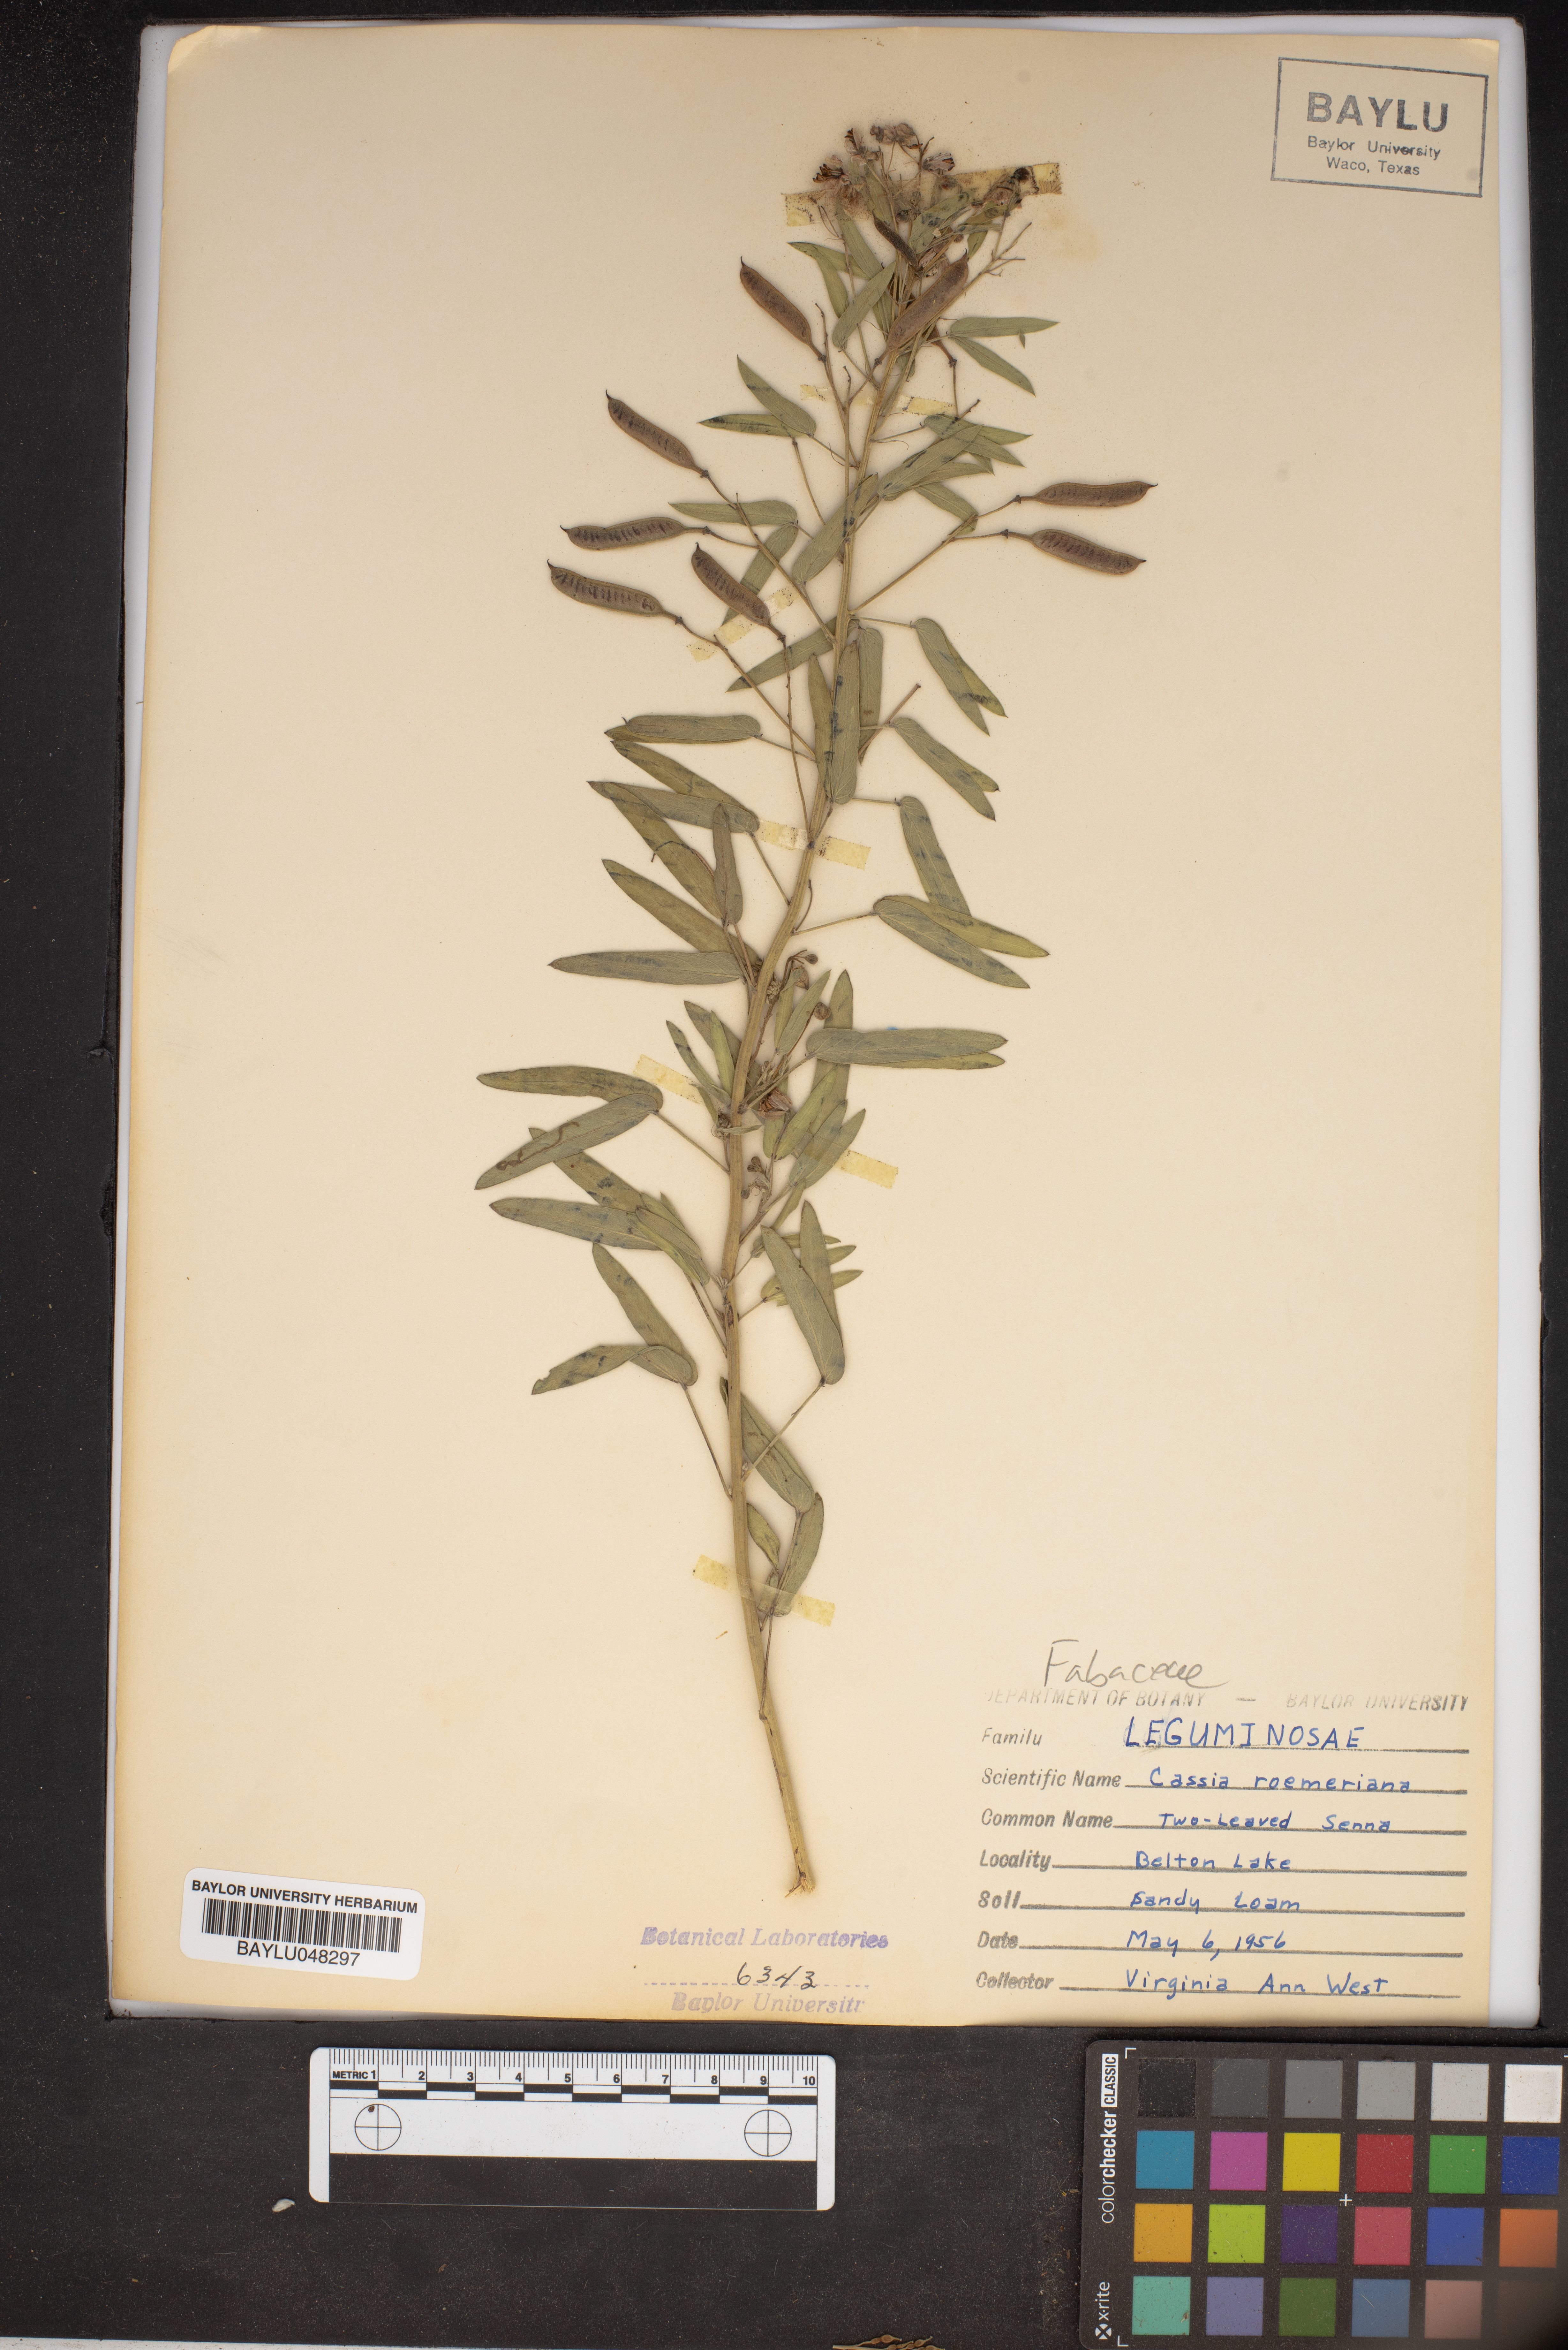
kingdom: Plantae
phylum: Tracheophyta
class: Magnoliopsida
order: Fabales
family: Fabaceae
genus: Senna
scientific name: Senna roemeriana
